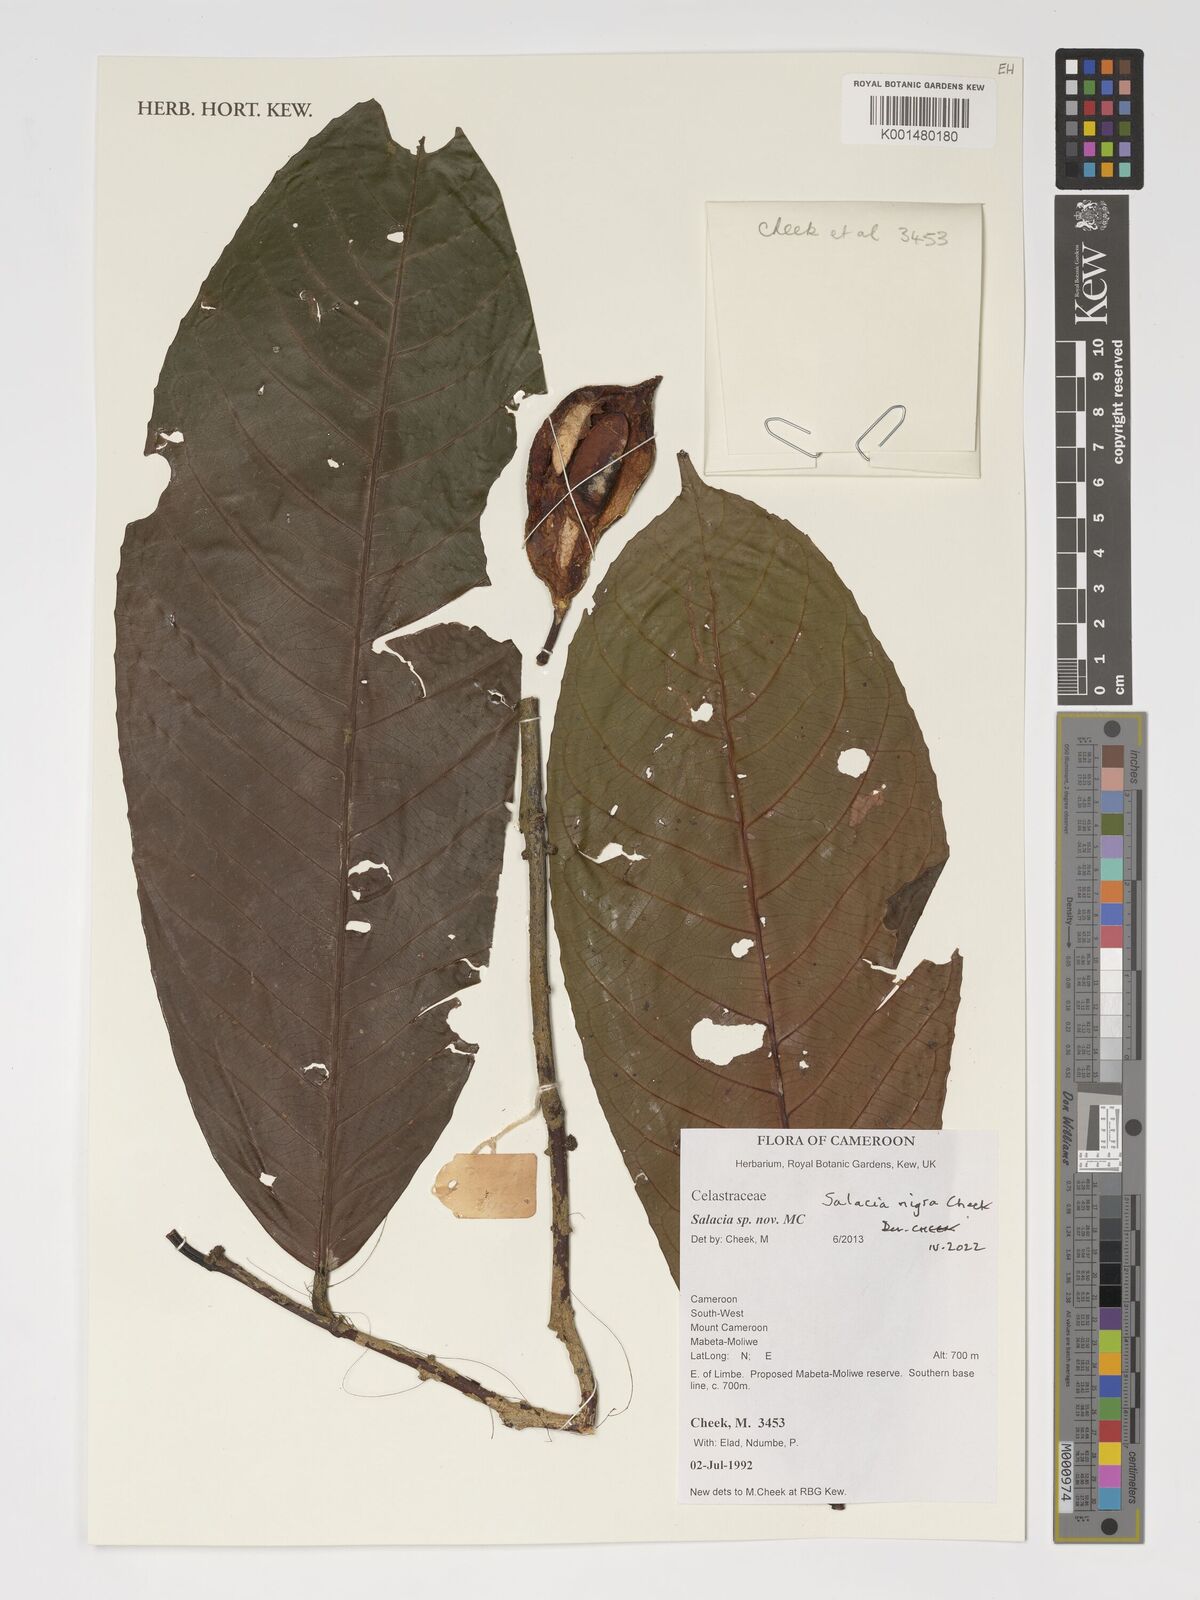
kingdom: Plantae
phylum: Tracheophyta
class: Magnoliopsida
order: Celastrales
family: Celastraceae
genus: Salacia
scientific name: Salacia nigra
